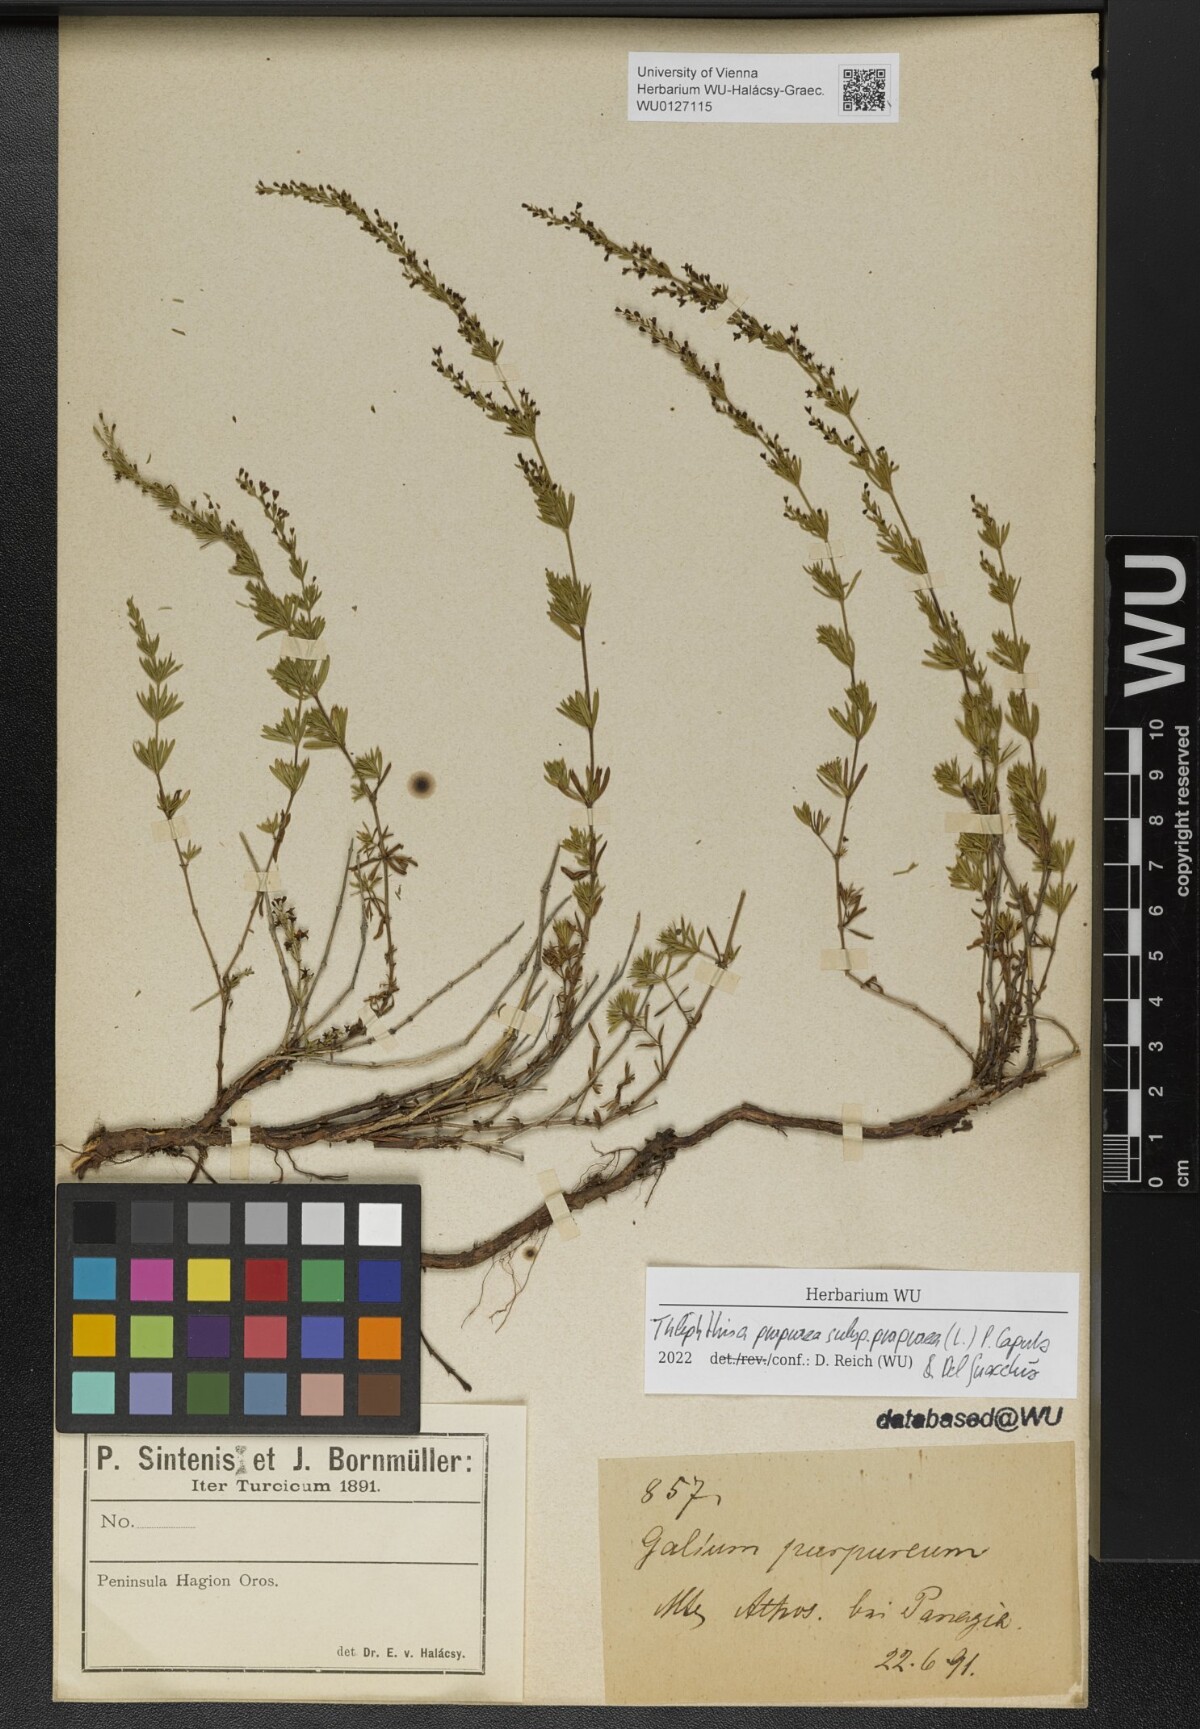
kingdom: Plantae
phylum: Tracheophyta
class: Magnoliopsida
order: Gentianales
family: Rubiaceae
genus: Thliphthisa
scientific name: Thliphthisa purpurea
